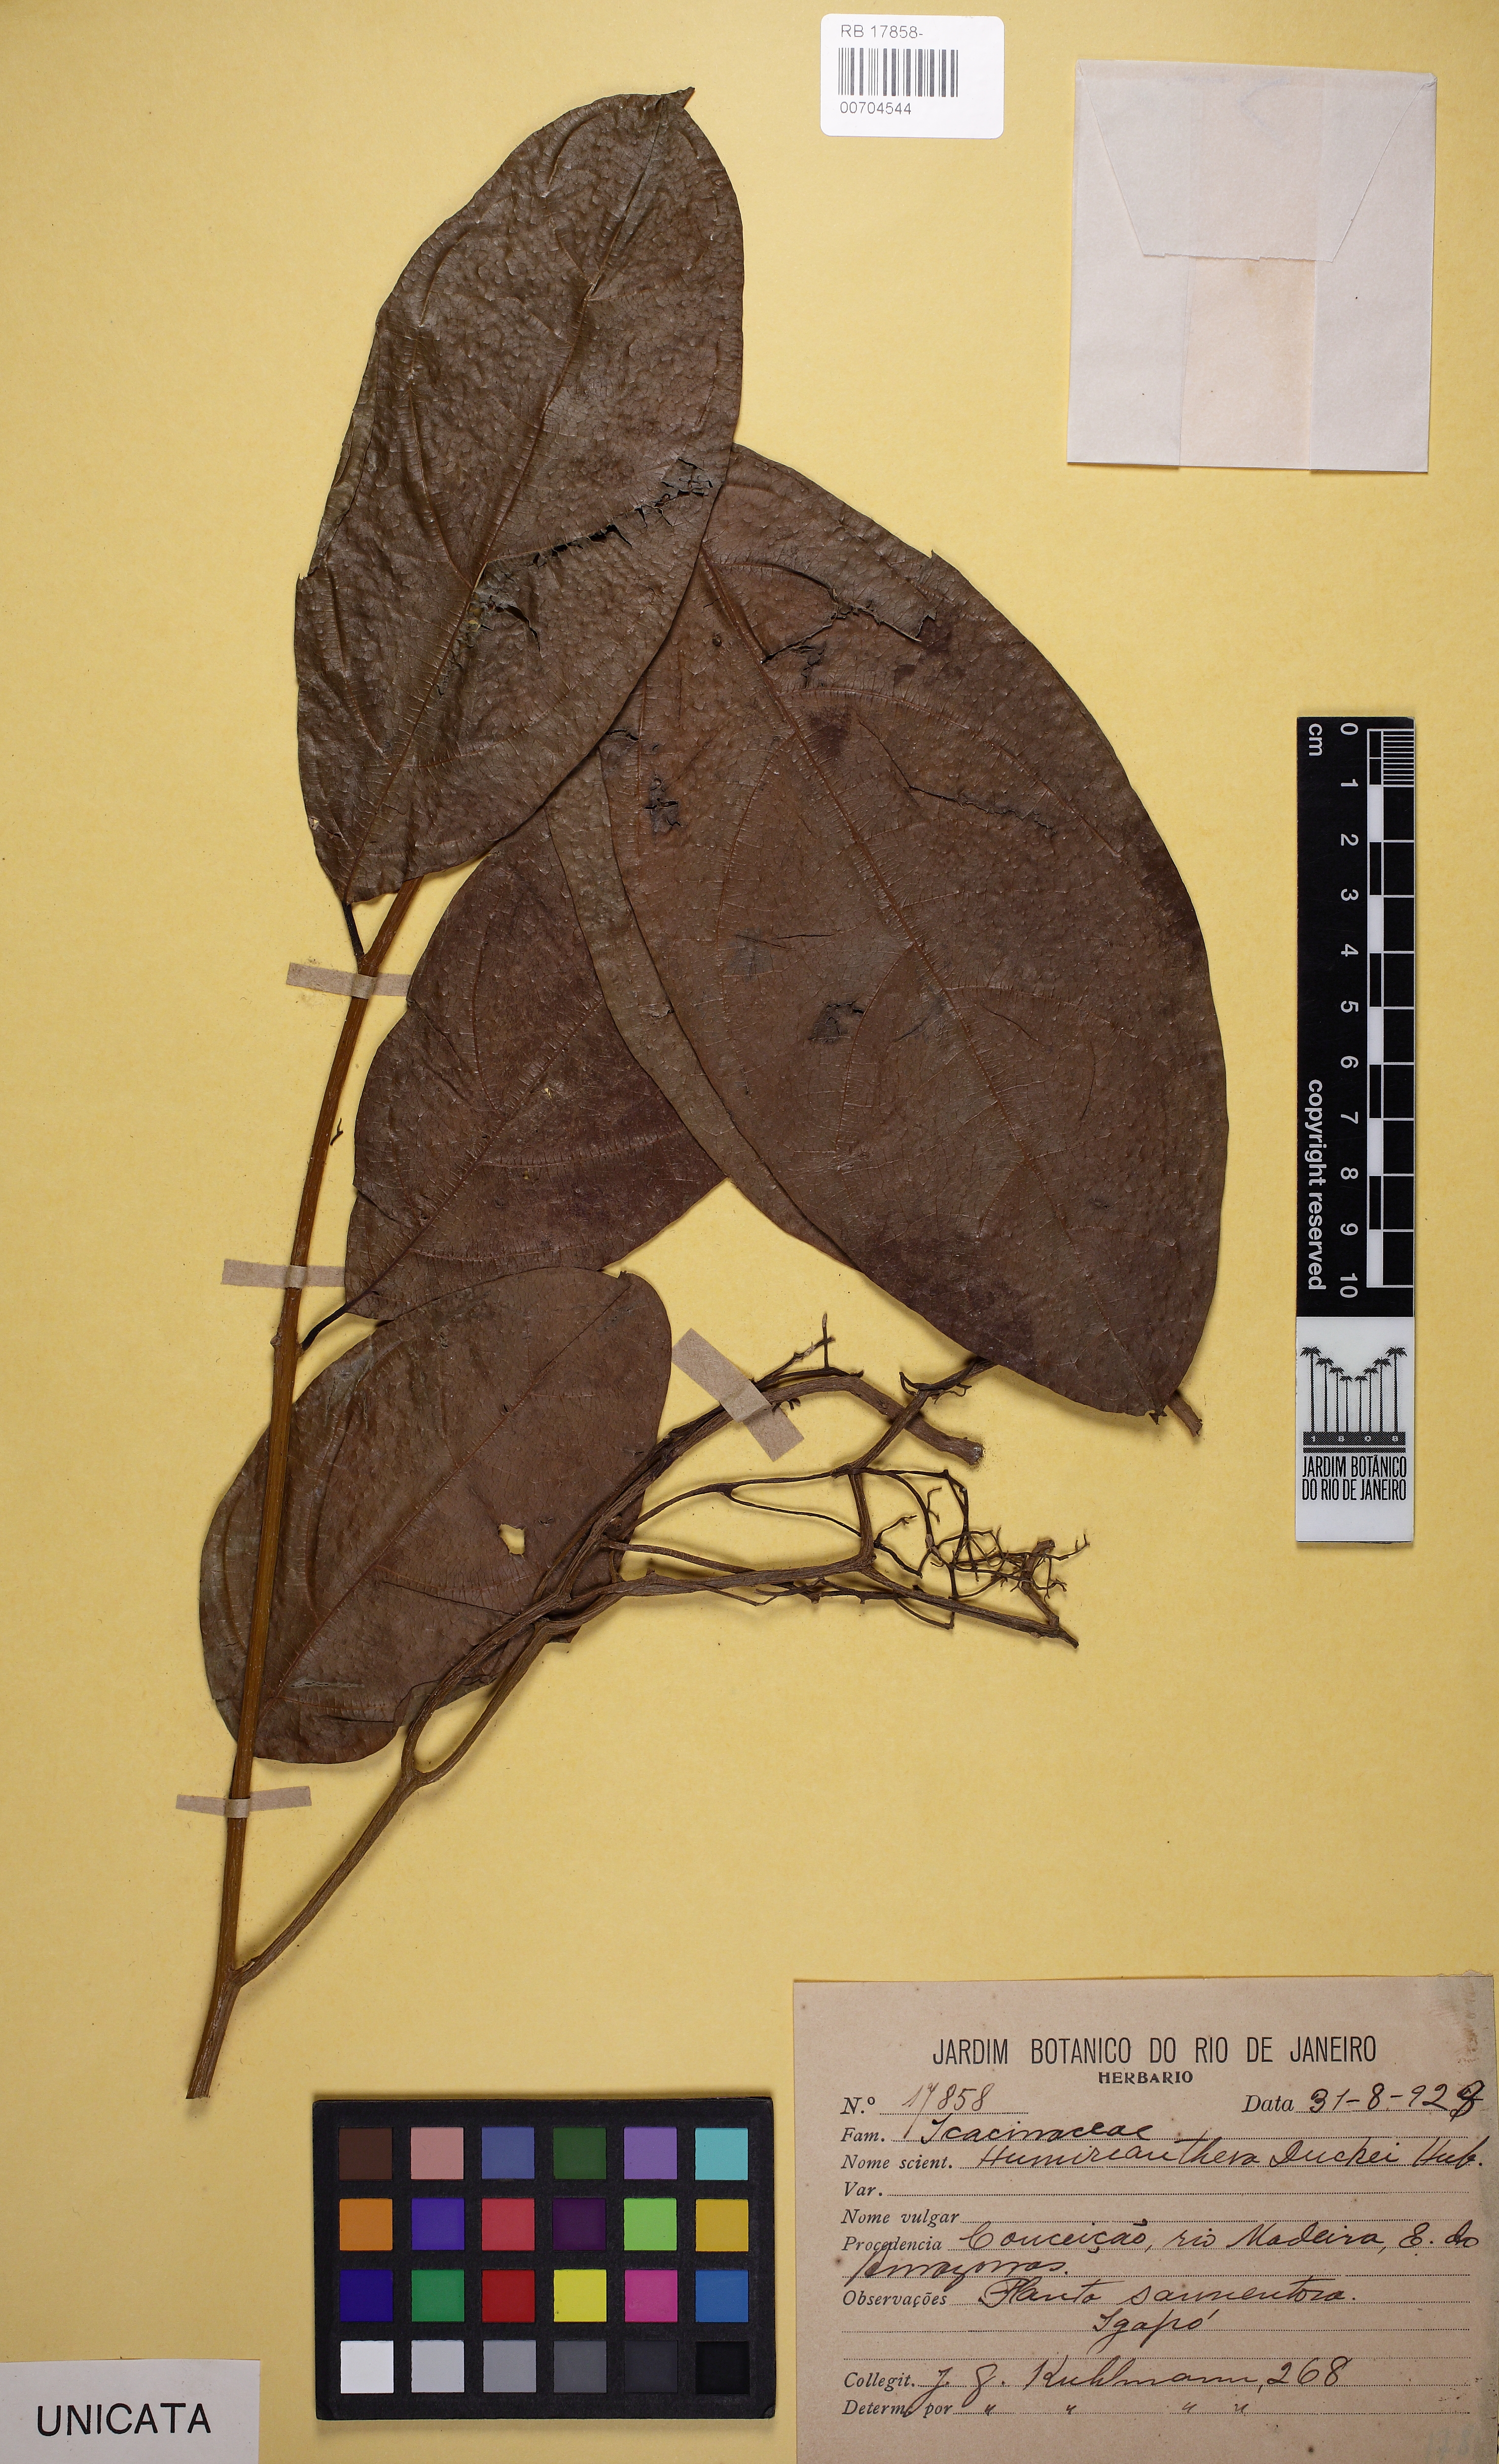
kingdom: Plantae
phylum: Tracheophyta
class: Magnoliopsida
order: Icacinales
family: Icacinaceae
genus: Casimirella
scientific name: Casimirella ampla
